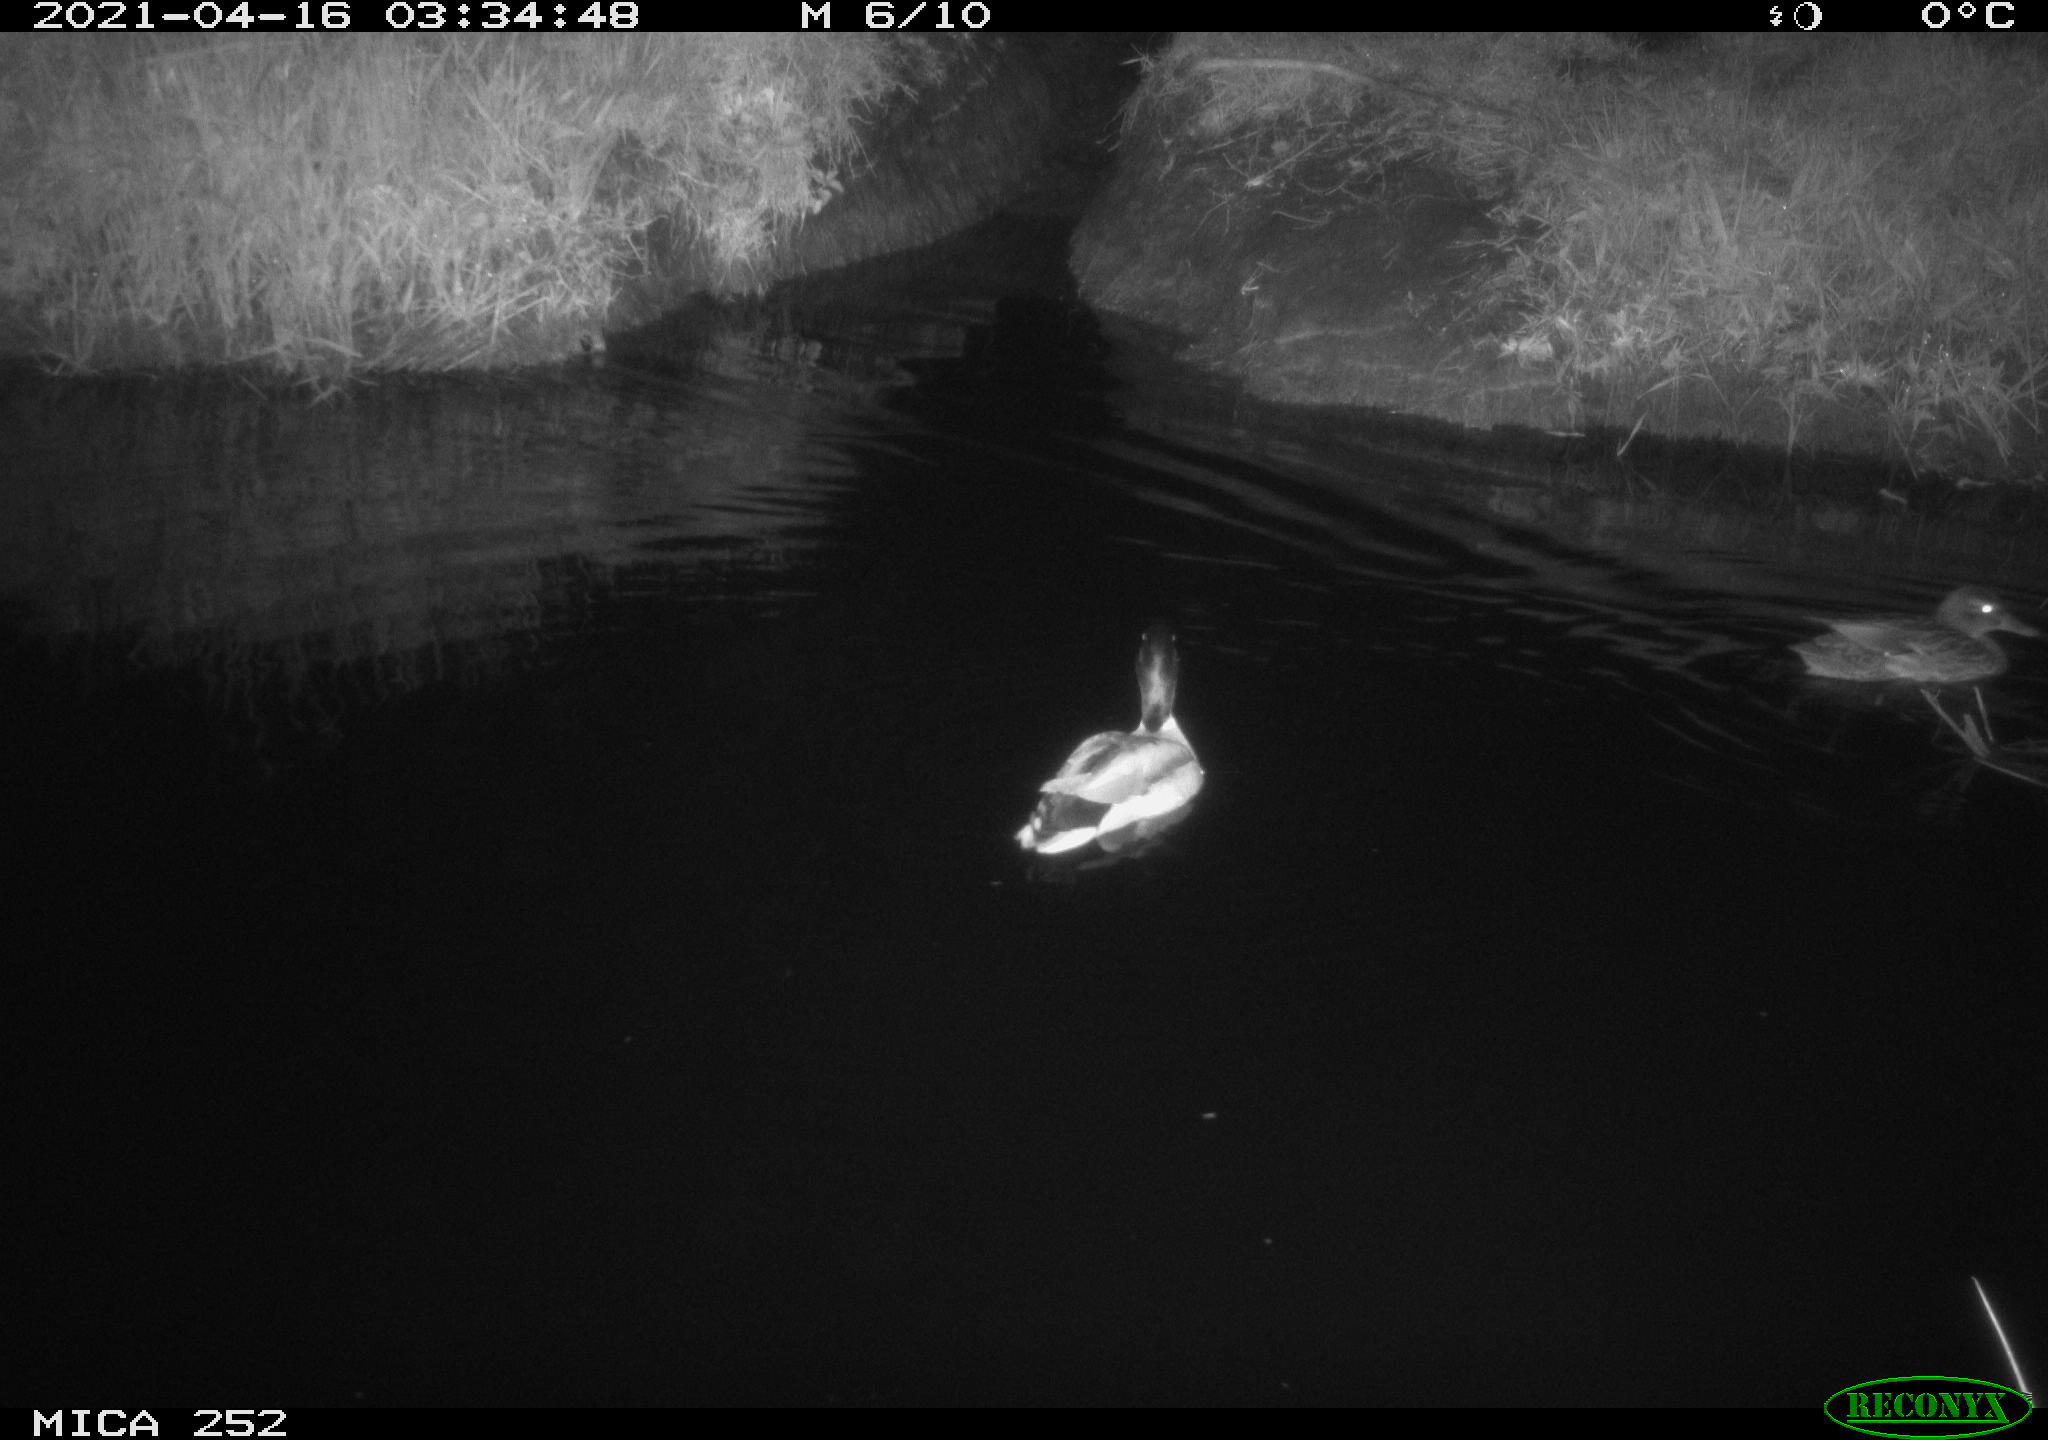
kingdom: Animalia
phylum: Chordata
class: Aves
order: Anseriformes
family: Anatidae
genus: Anas
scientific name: Anas platyrhynchos
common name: Mallard
